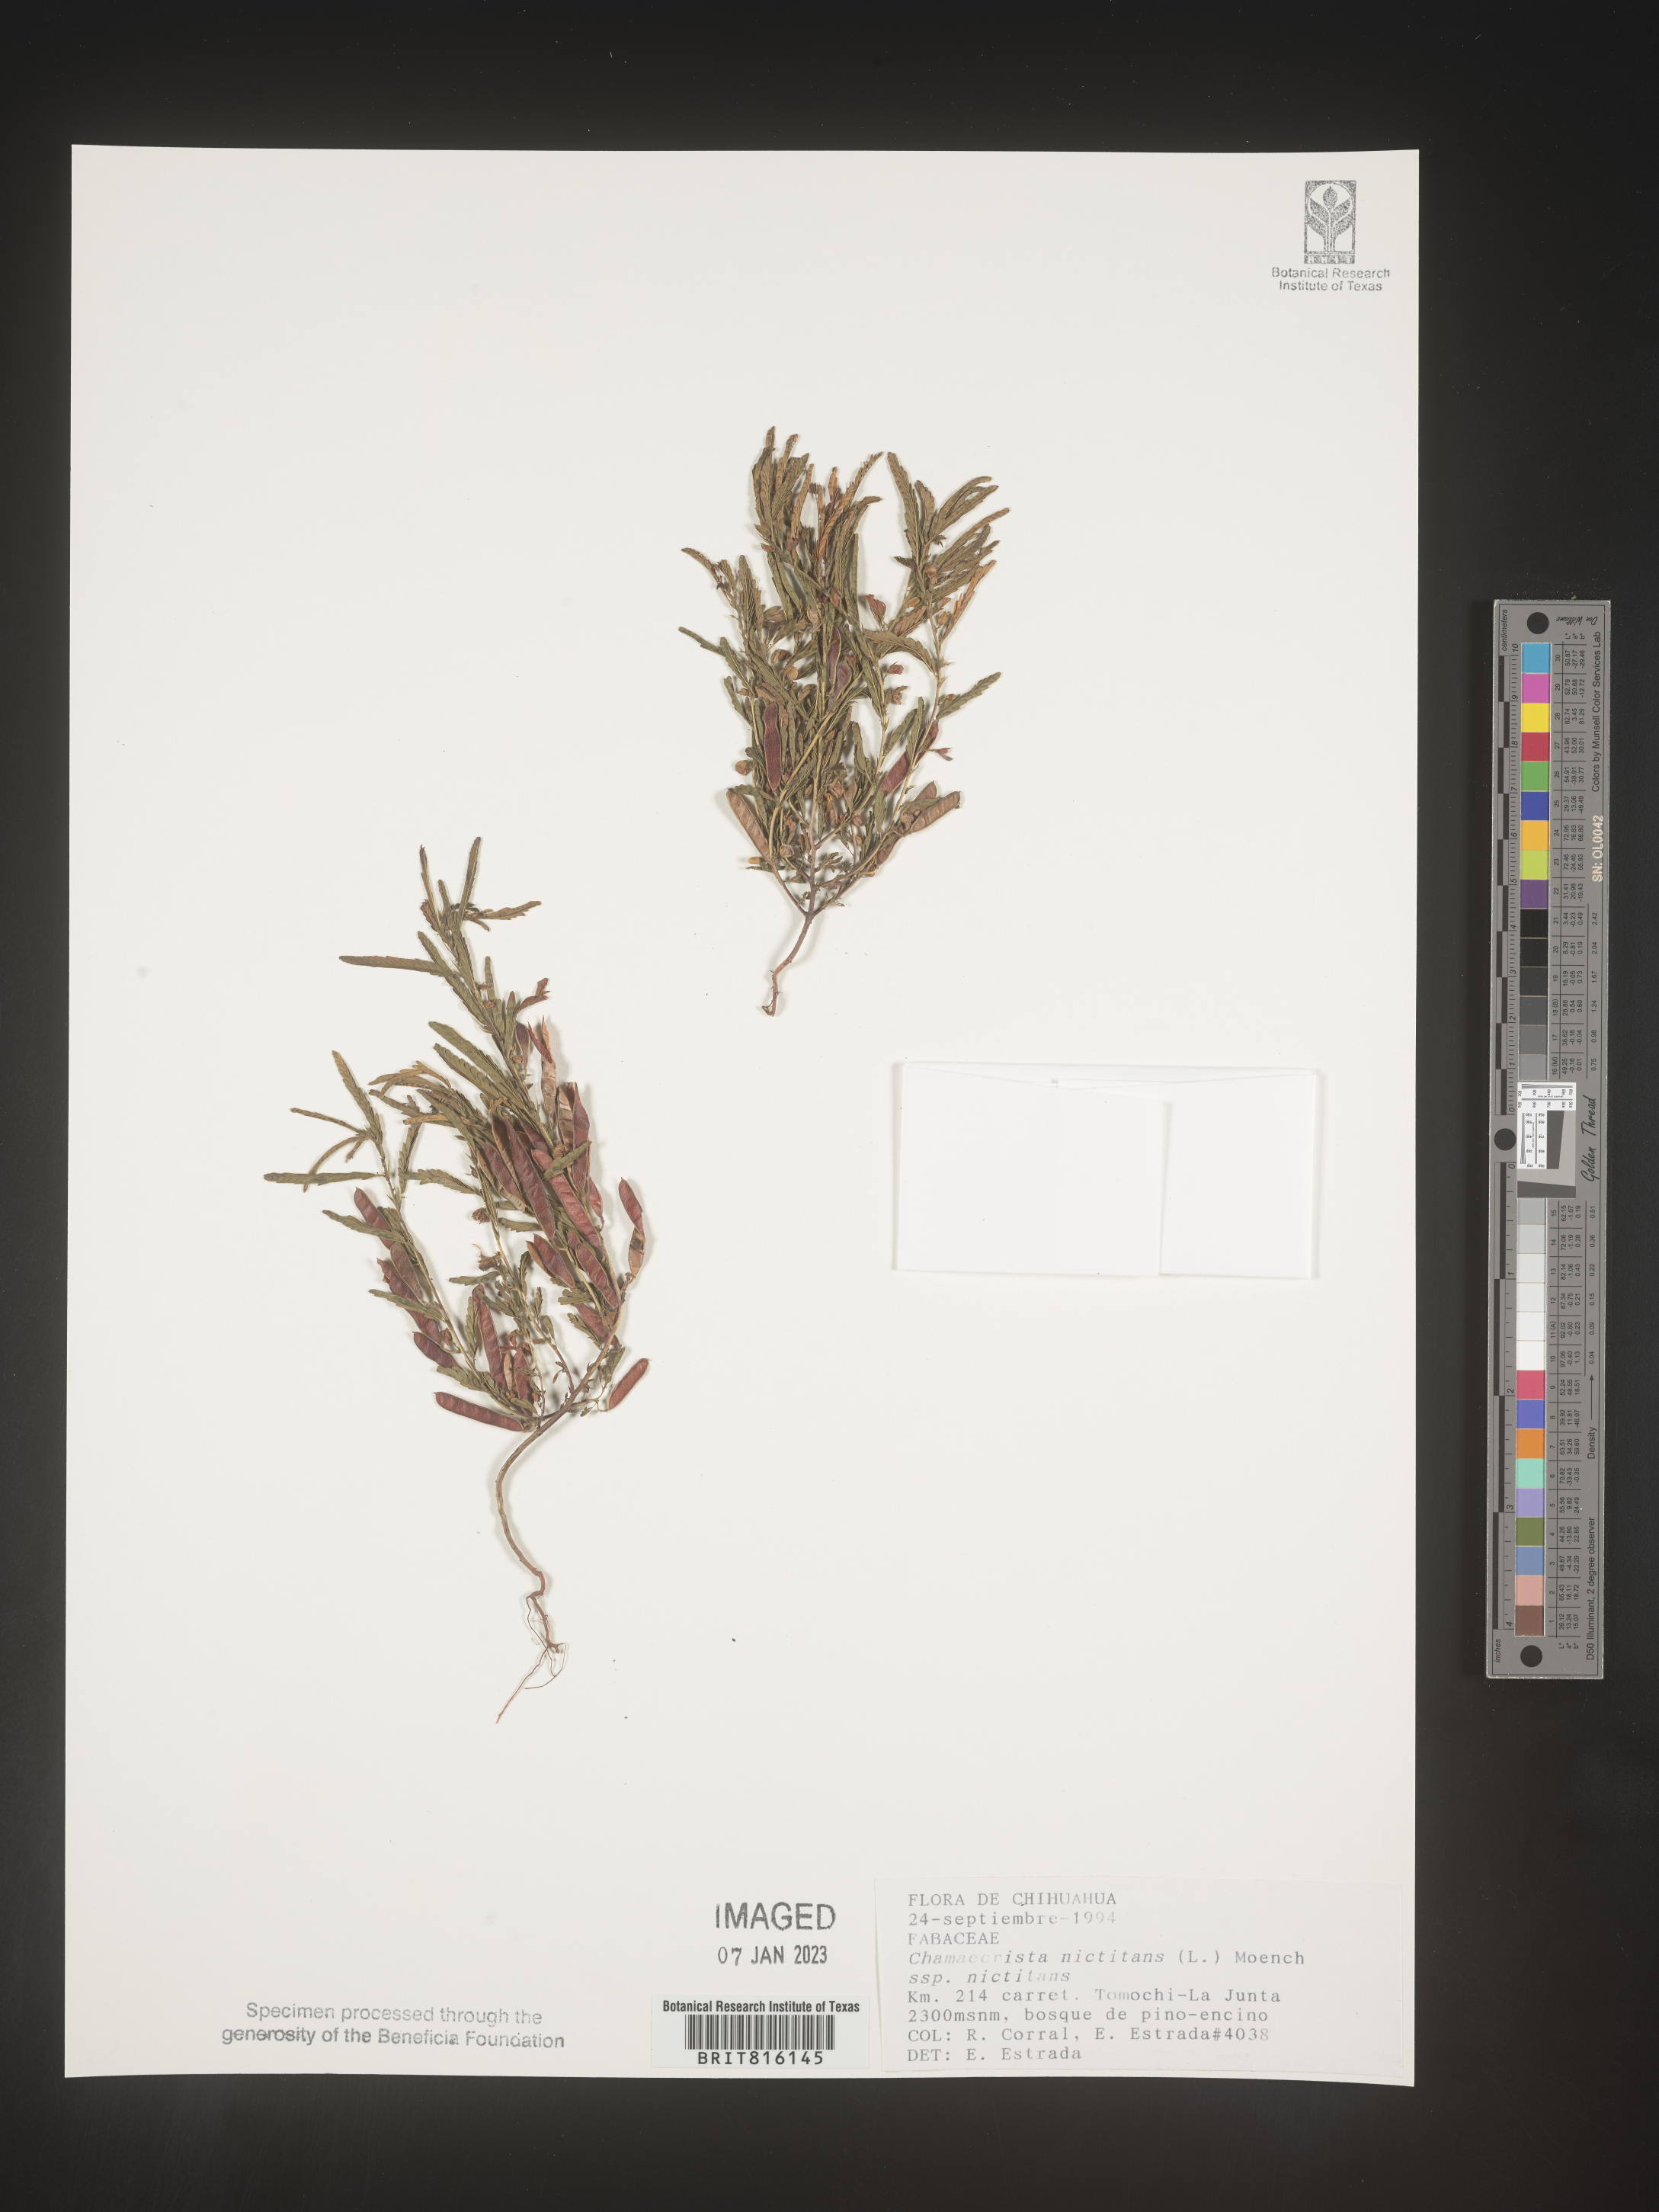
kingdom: Plantae
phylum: Tracheophyta
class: Magnoliopsida
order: Fabales
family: Fabaceae
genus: Chamaecrista
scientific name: Chamaecrista
